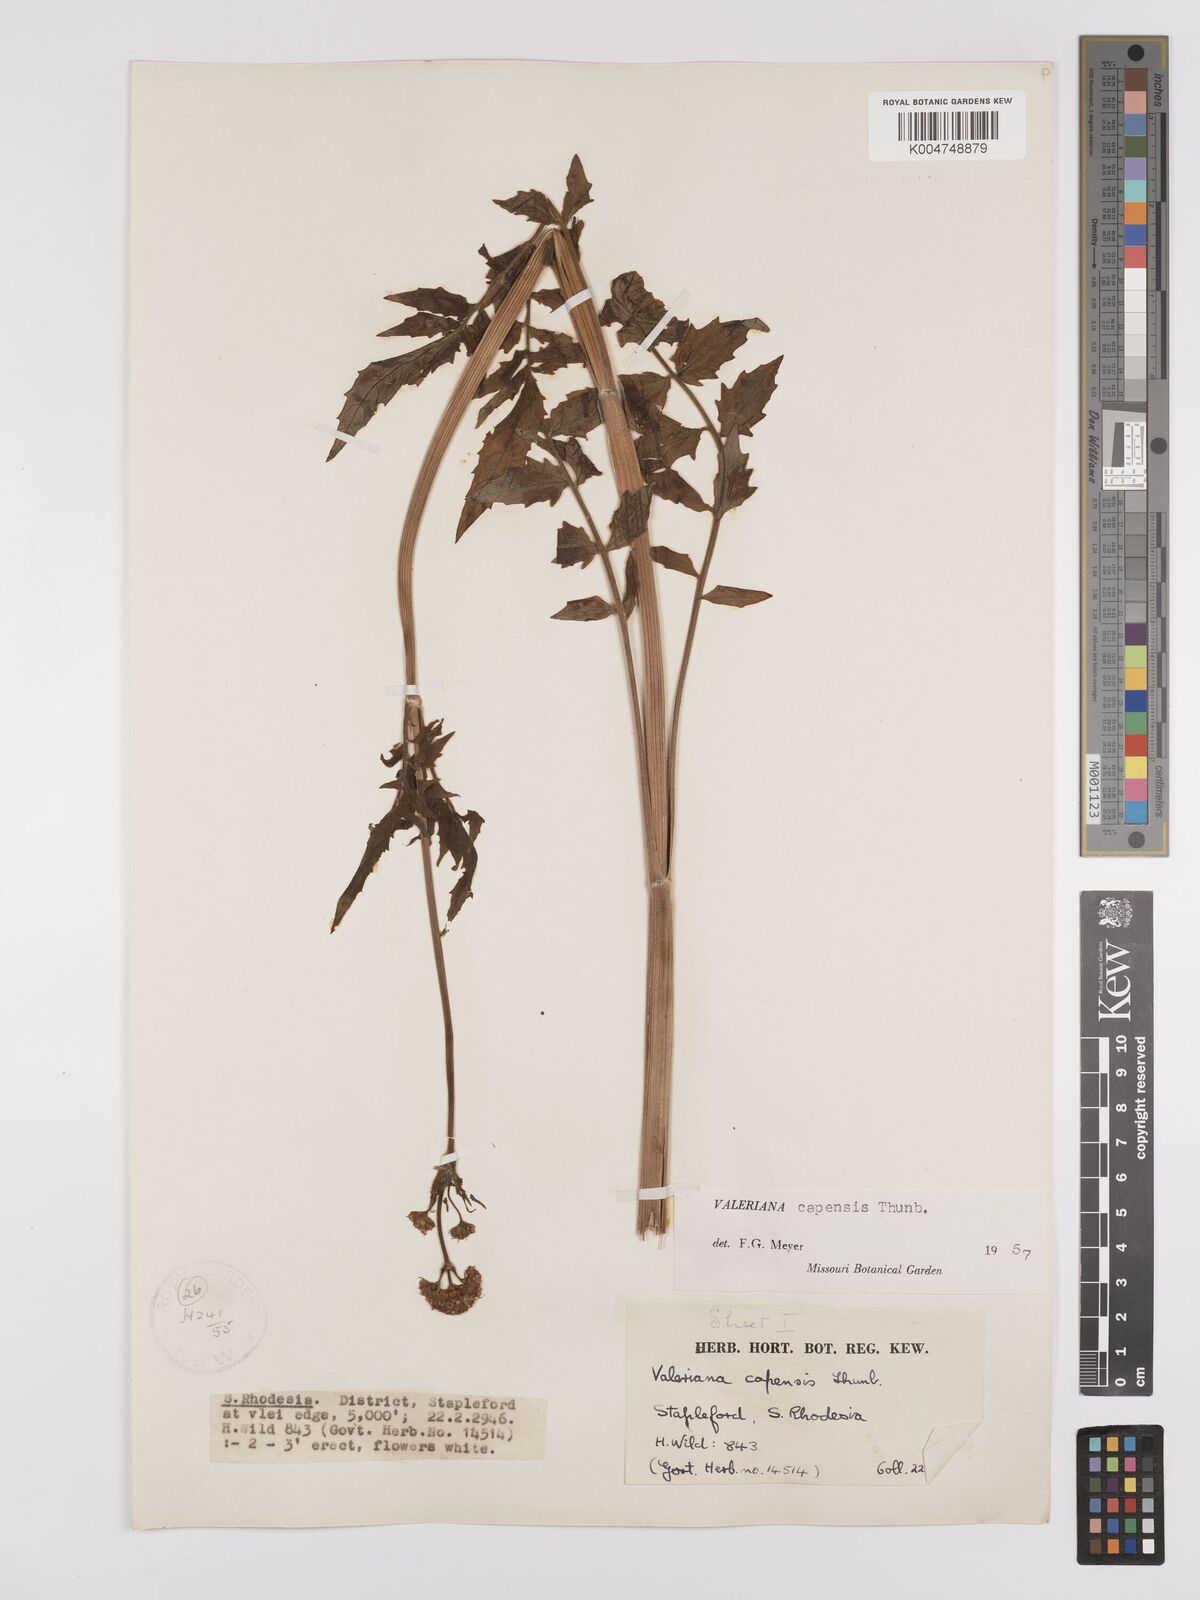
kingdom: Plantae
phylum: Tracheophyta
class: Magnoliopsida
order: Dipsacales
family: Caprifoliaceae
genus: Valeriana
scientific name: Valeriana capensis
